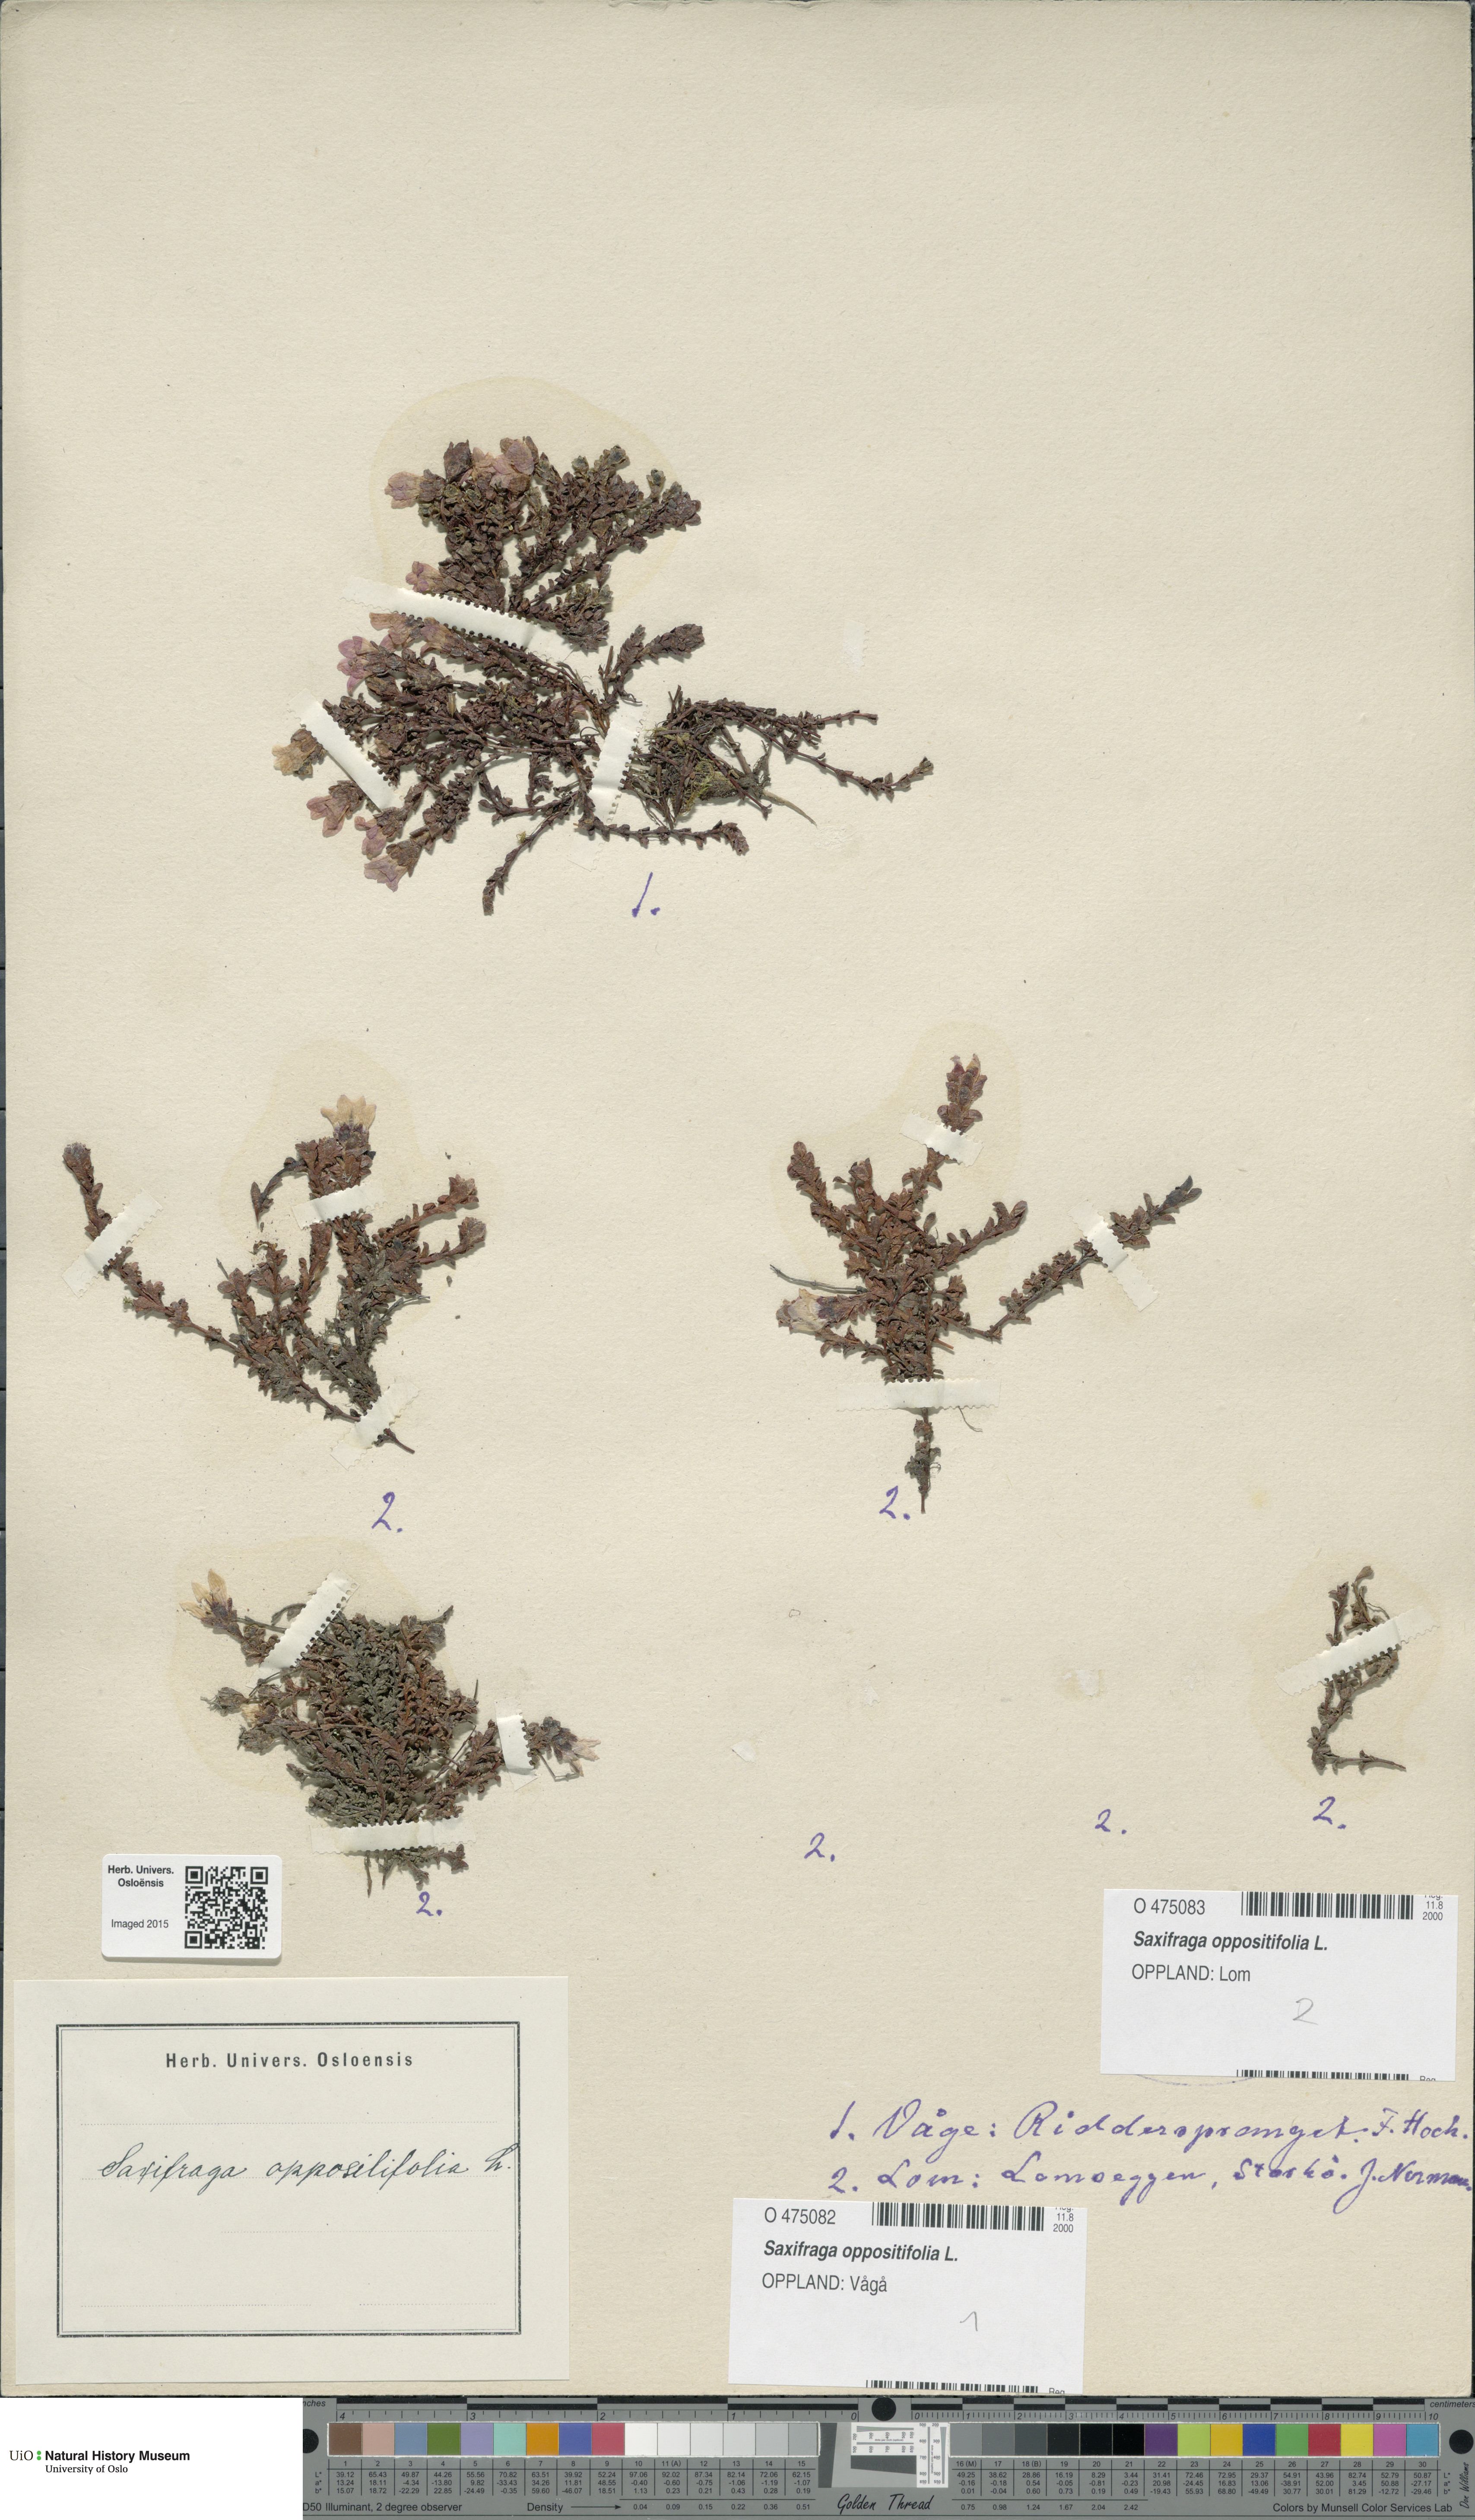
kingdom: Plantae
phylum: Tracheophyta
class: Magnoliopsida
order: Saxifragales
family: Saxifragaceae
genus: Saxifraga
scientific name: Saxifraga oppositifolia
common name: Purple saxifrage
